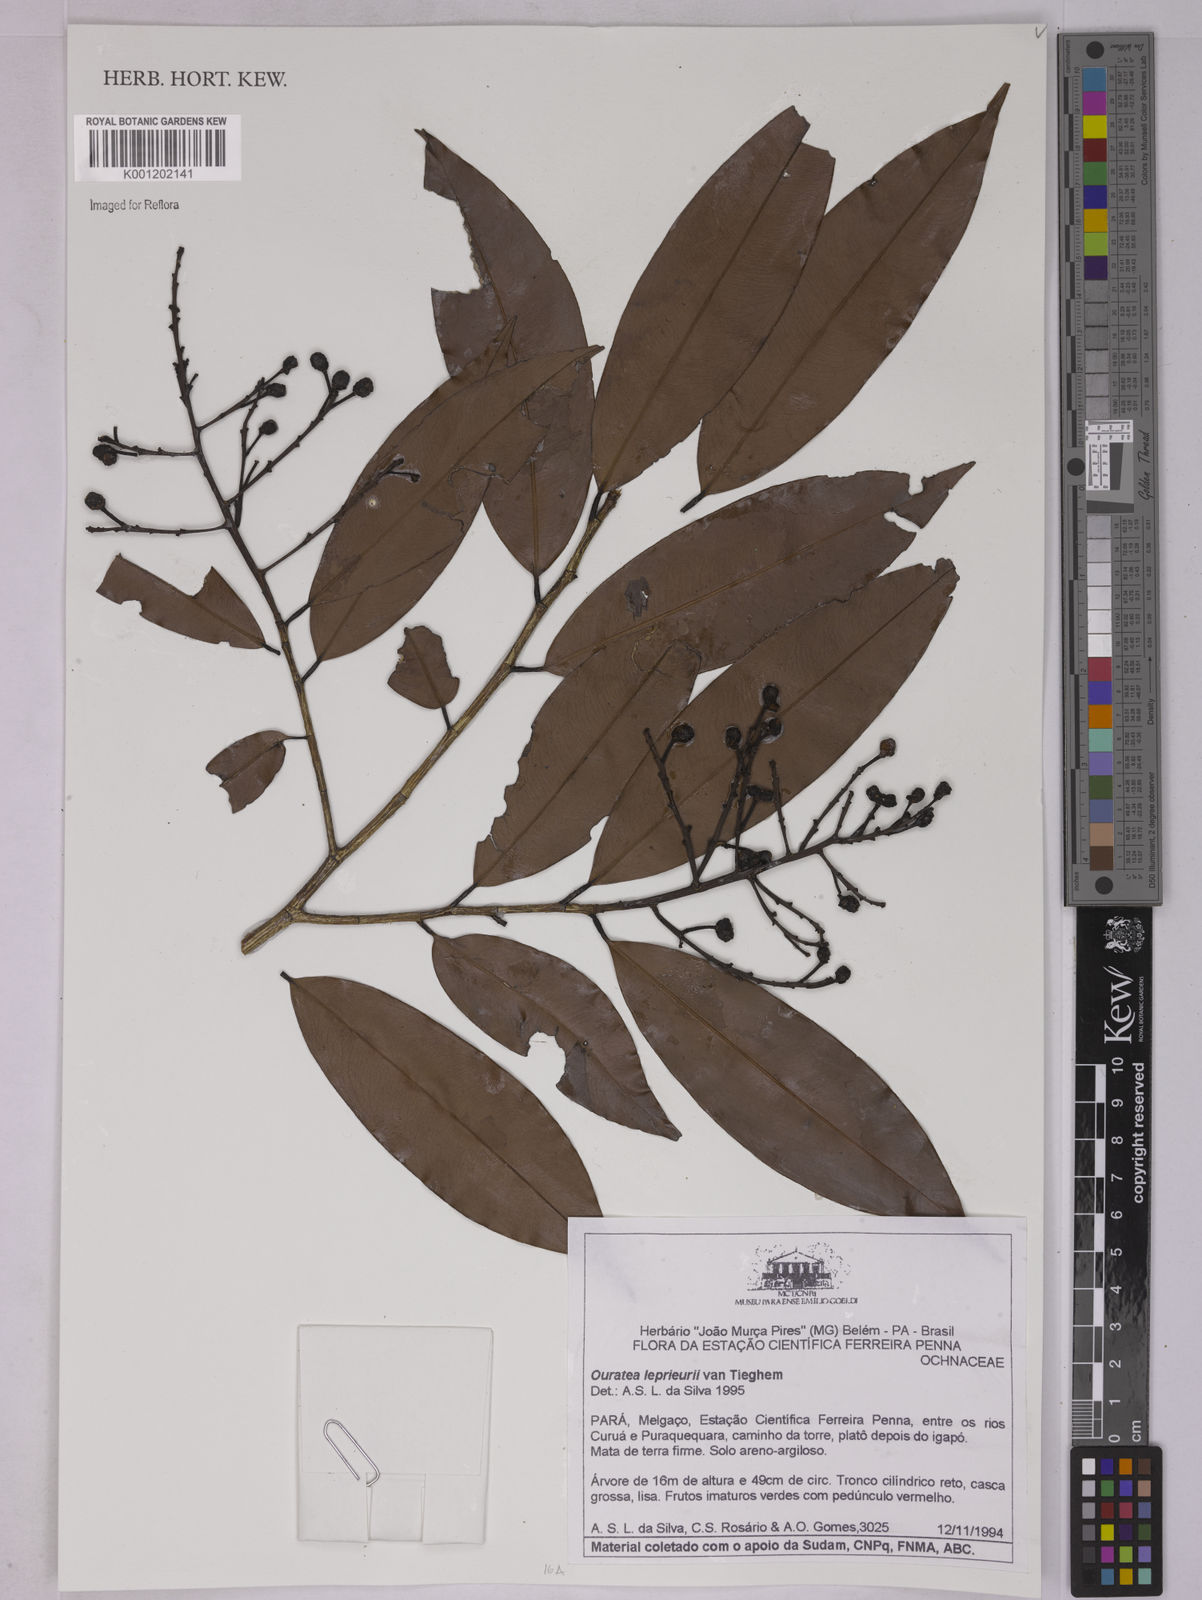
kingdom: Plantae
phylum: Tracheophyta
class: Magnoliopsida
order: Malpighiales
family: Ochnaceae
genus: Ouratea
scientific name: Ouratea leprieuri
